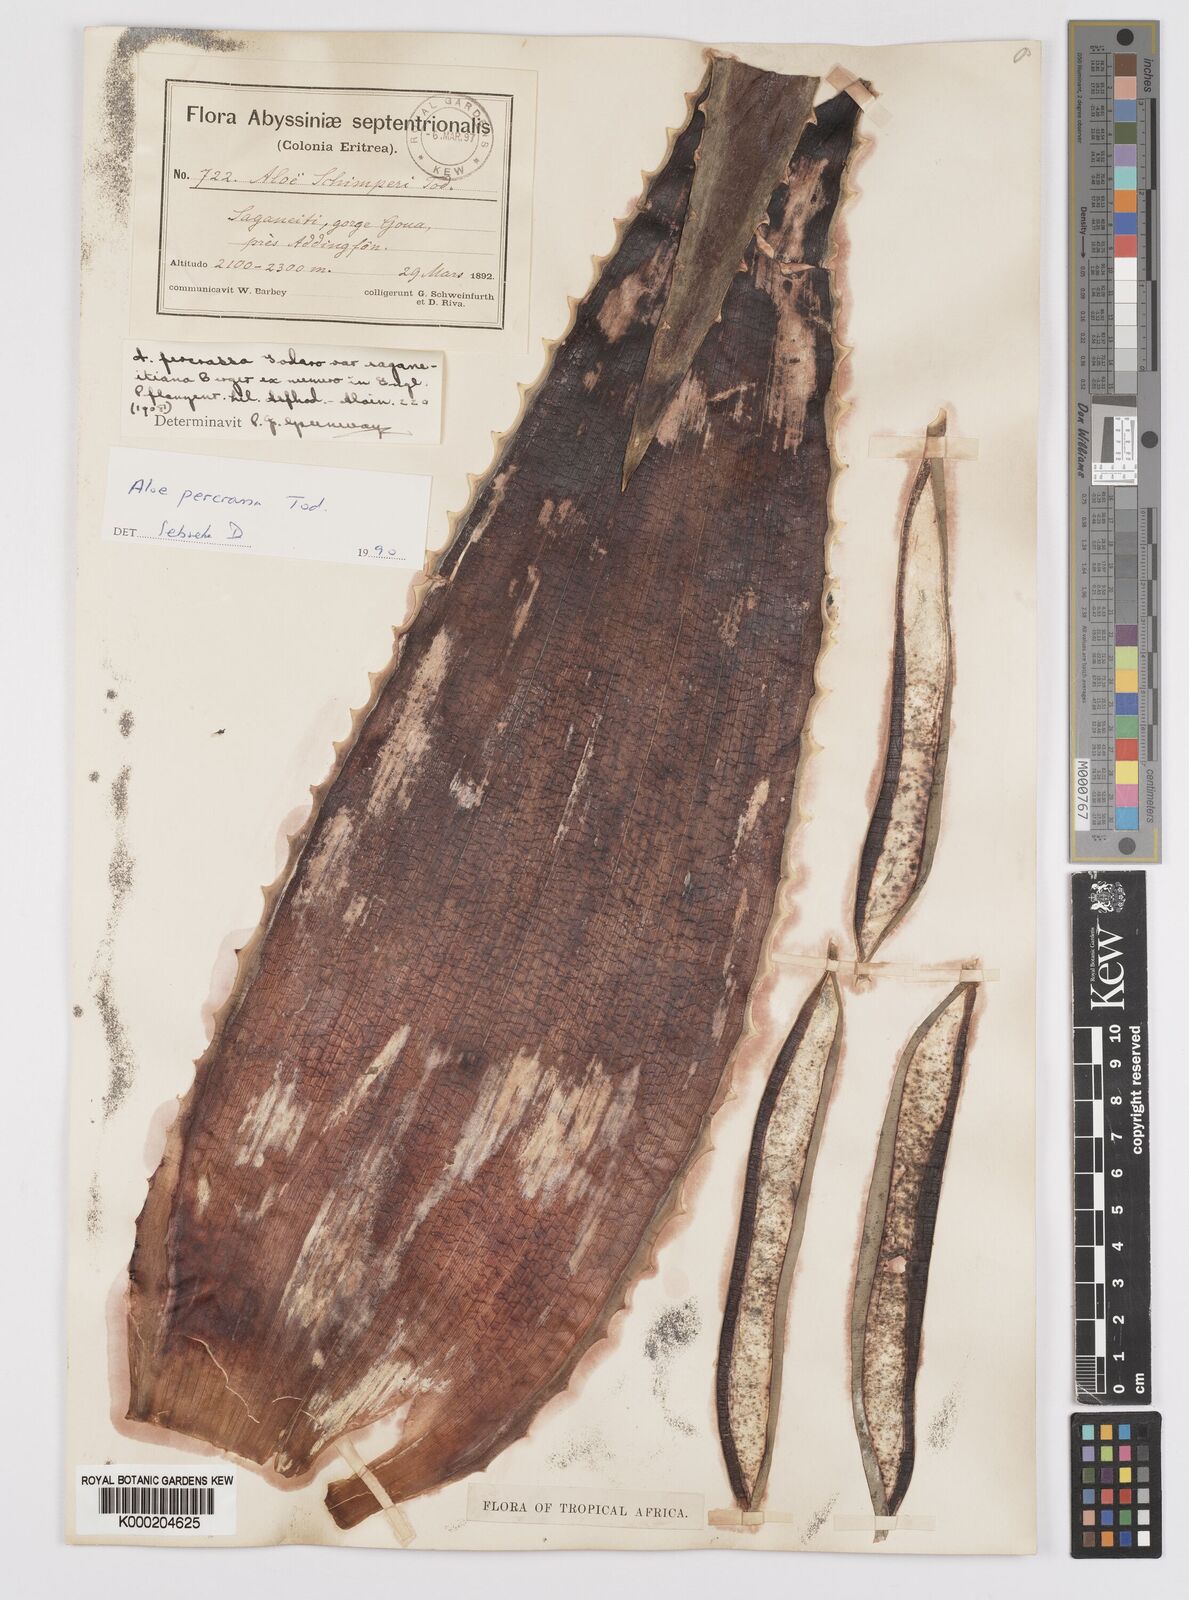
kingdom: Plantae
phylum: Tracheophyta
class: Liliopsida
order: Asparagales
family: Asphodelaceae
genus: Aloe
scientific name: Aloe percrassa
